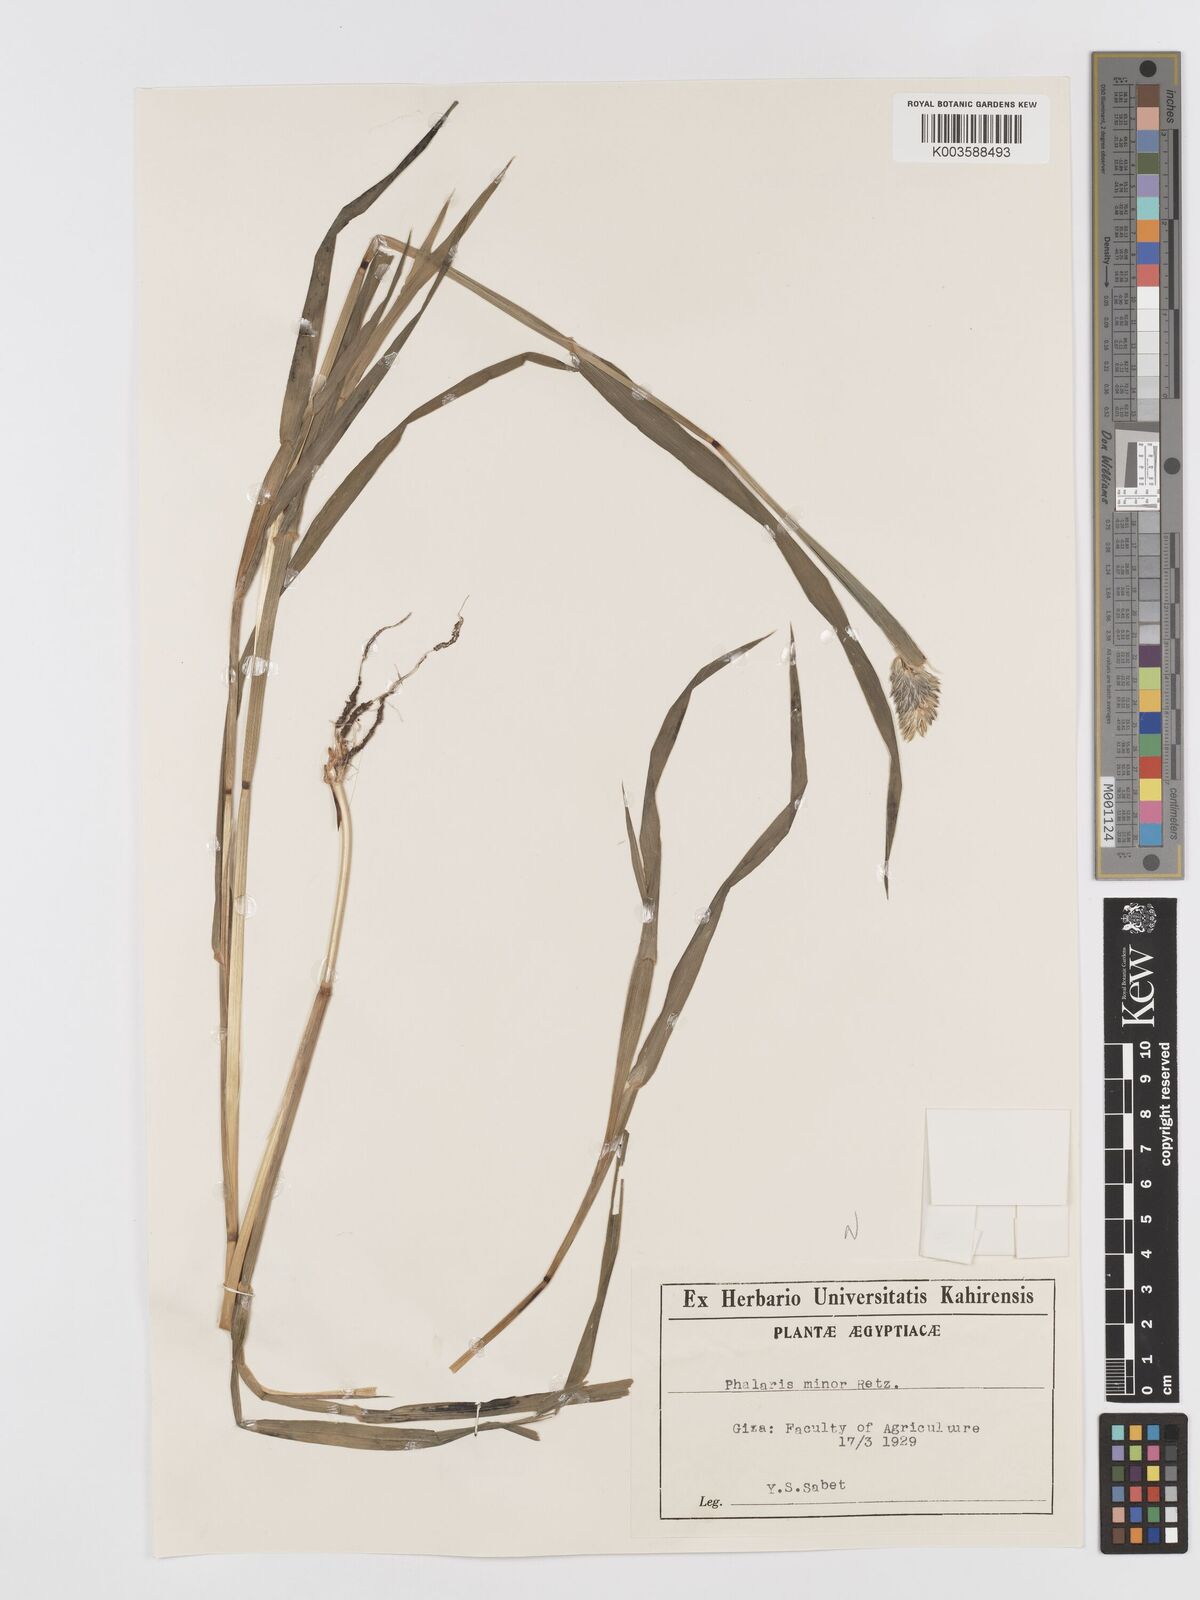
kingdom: Plantae
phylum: Tracheophyta
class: Liliopsida
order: Poales
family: Poaceae
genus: Phalaris
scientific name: Phalaris minor
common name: Littleseed canarygrass
